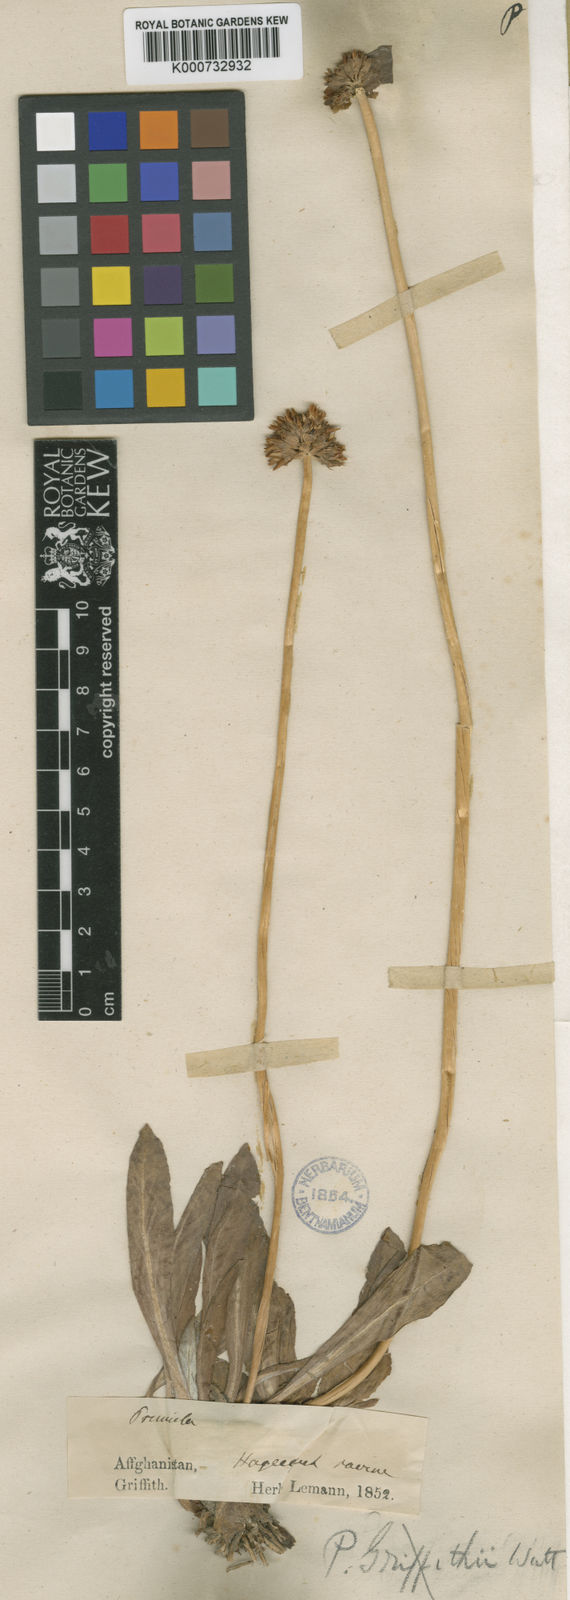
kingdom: Plantae
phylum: Tracheophyta
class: Magnoliopsida
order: Ericales
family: Primulaceae
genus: Primula
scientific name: Primula capitellata
